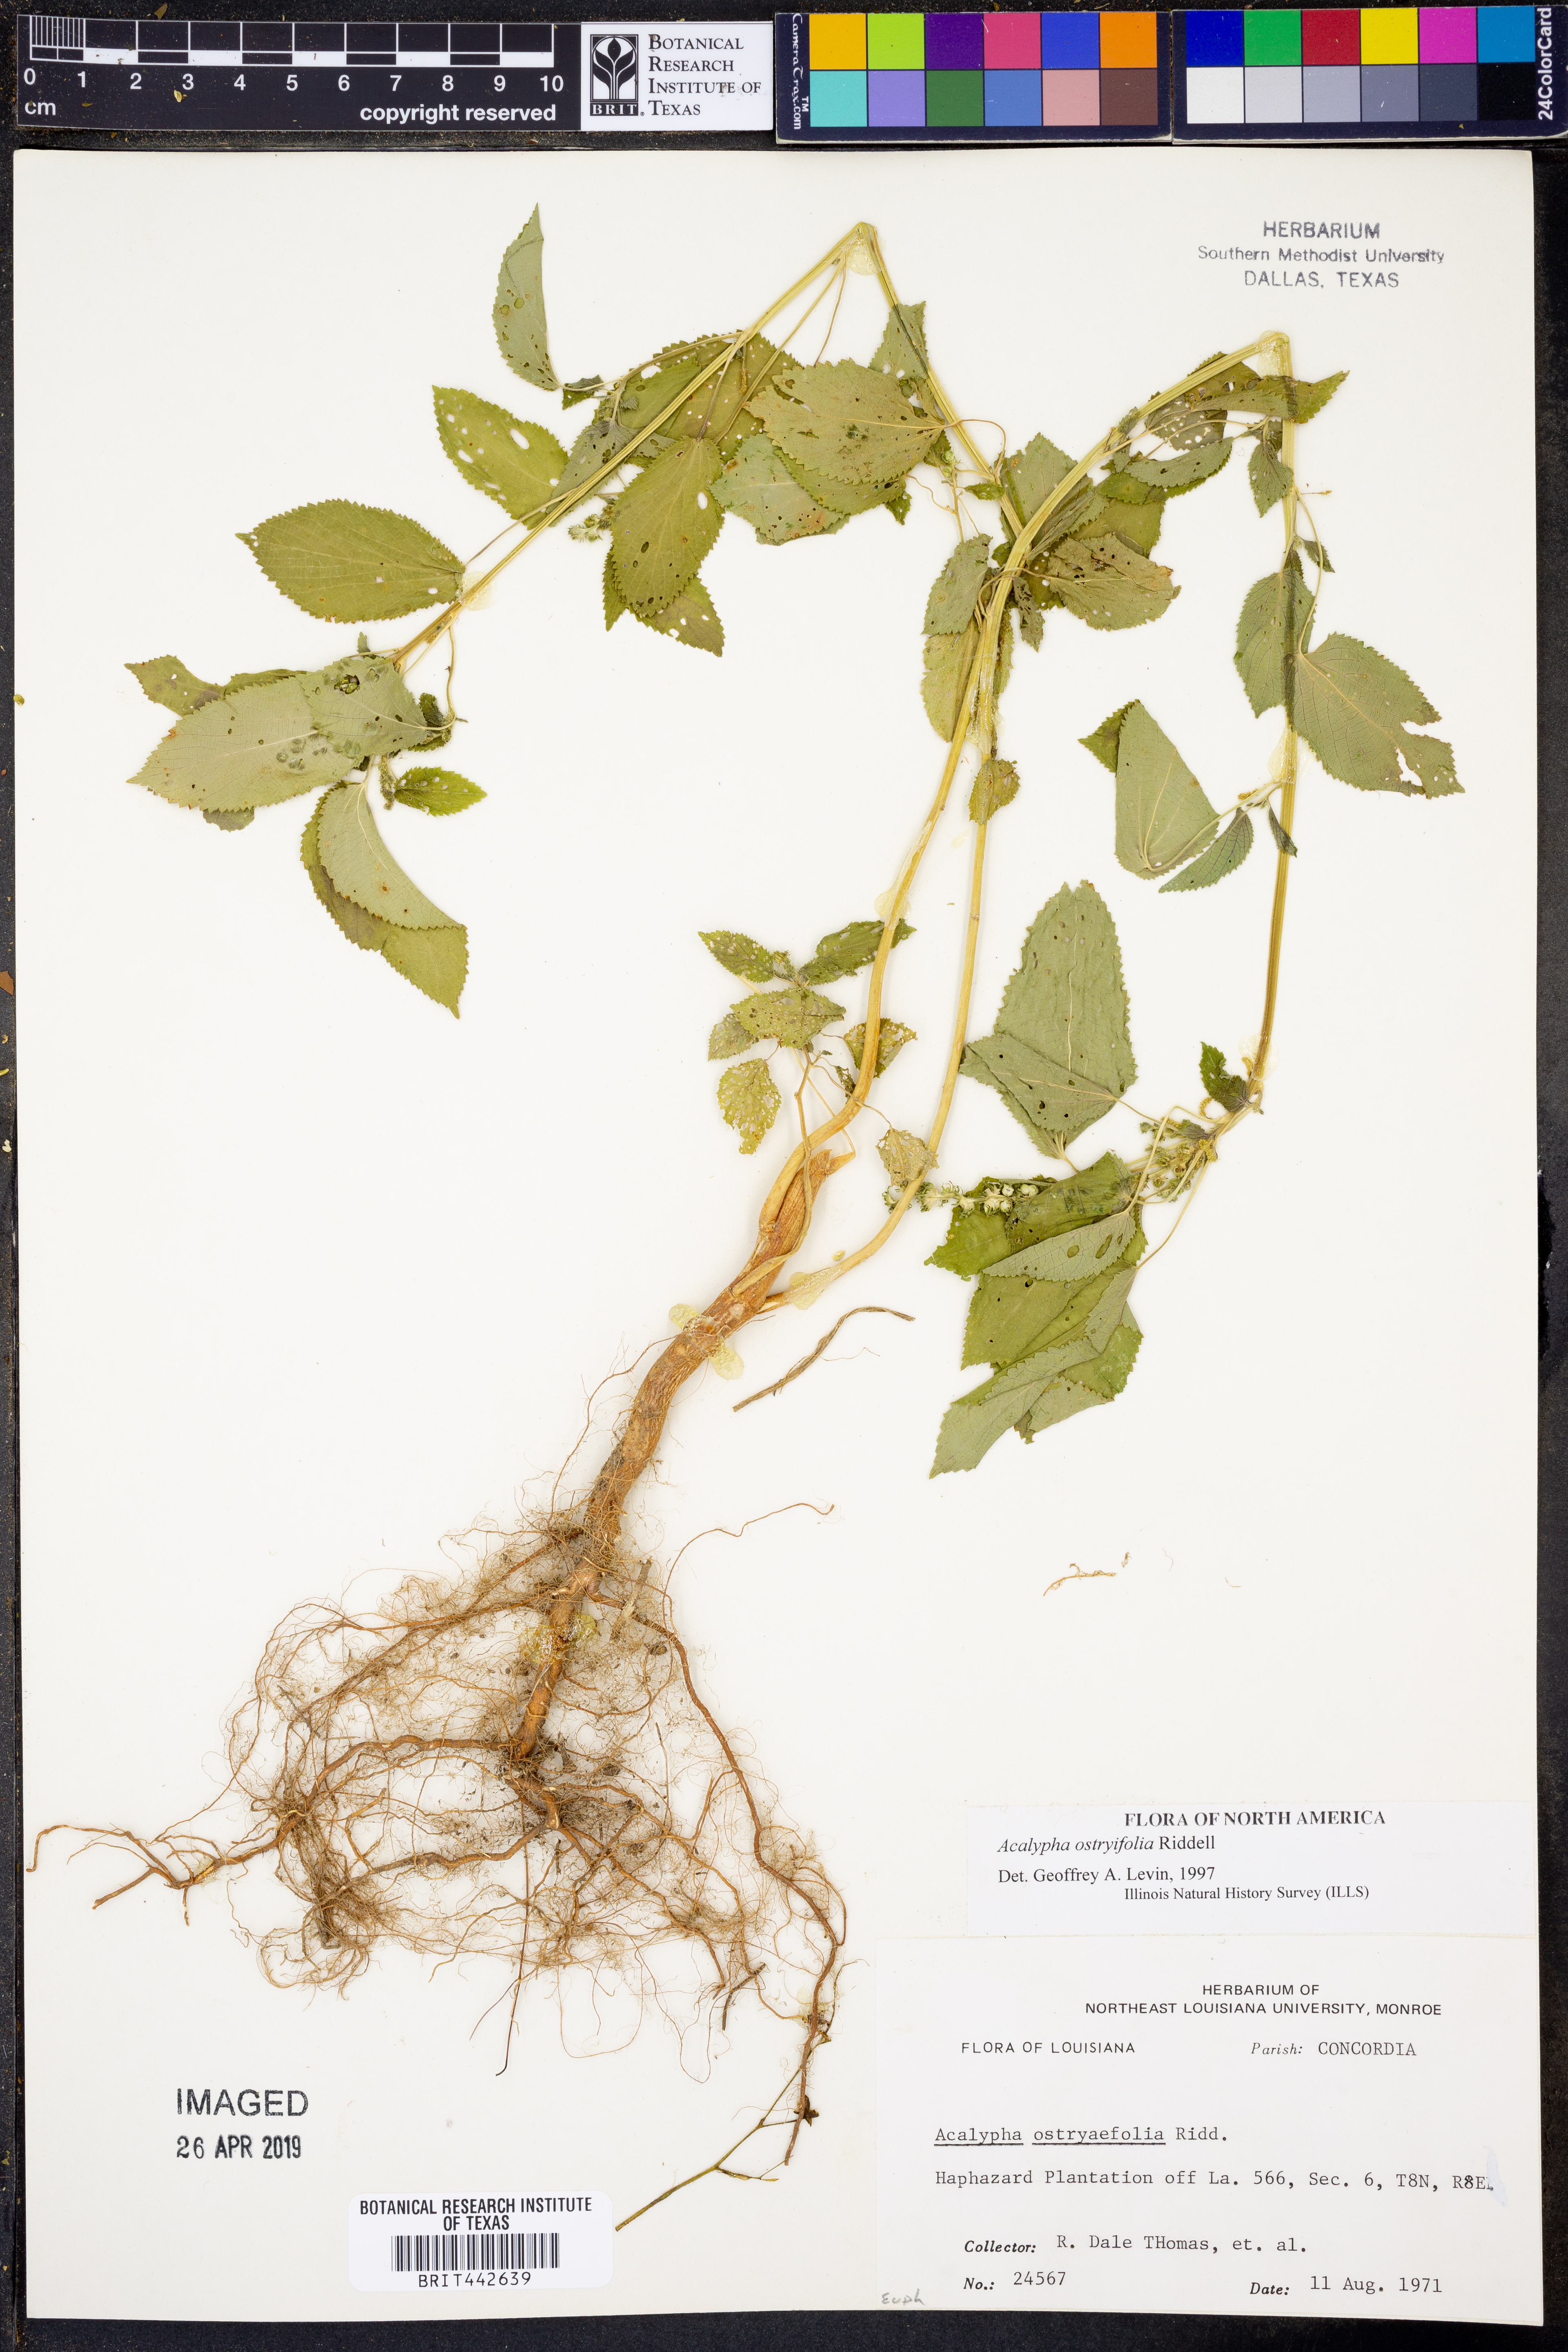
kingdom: Plantae
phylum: Tracheophyta
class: Magnoliopsida
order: Malpighiales
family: Euphorbiaceae
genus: Acalypha
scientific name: Acalypha persimilis
